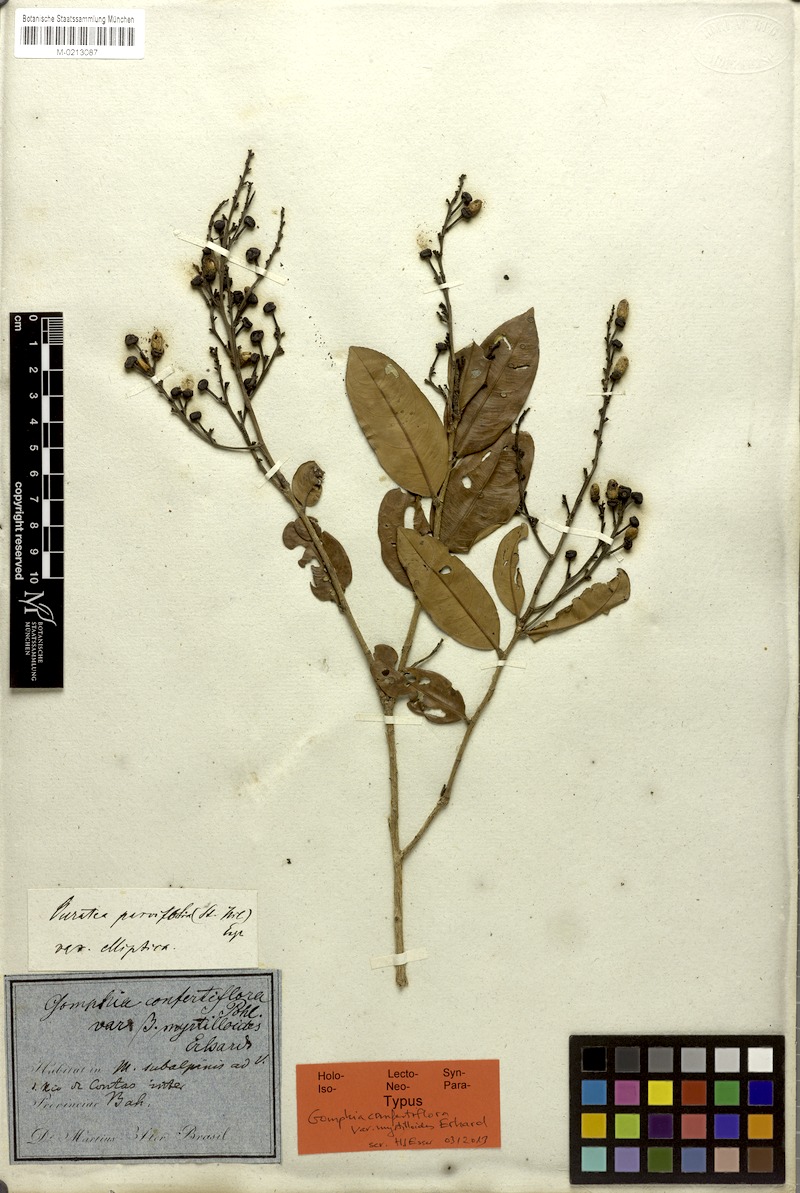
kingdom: Plantae
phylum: Tracheophyta
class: Magnoliopsida
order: Malpighiales
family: Ochnaceae
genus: Ouratea
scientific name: Ouratea confertiflora
